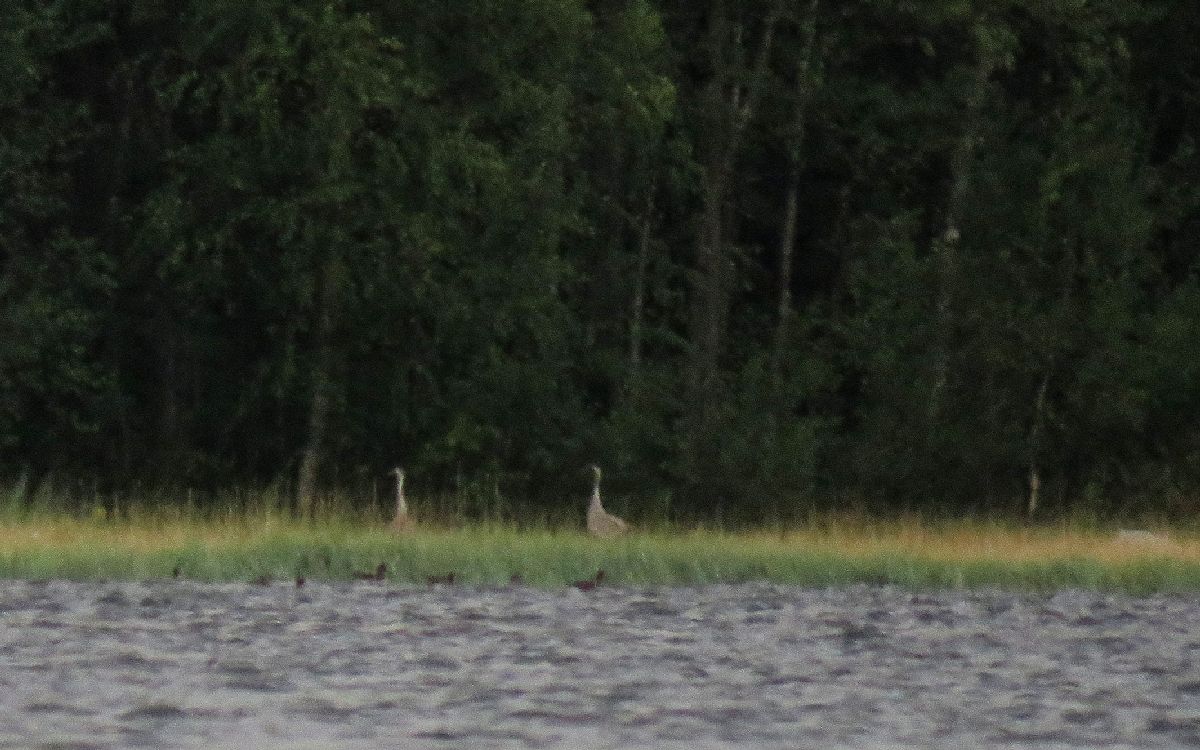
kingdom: Animalia
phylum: Chordata
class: Aves
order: Gruiformes
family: Gruidae
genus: Grus
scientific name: Grus grus
